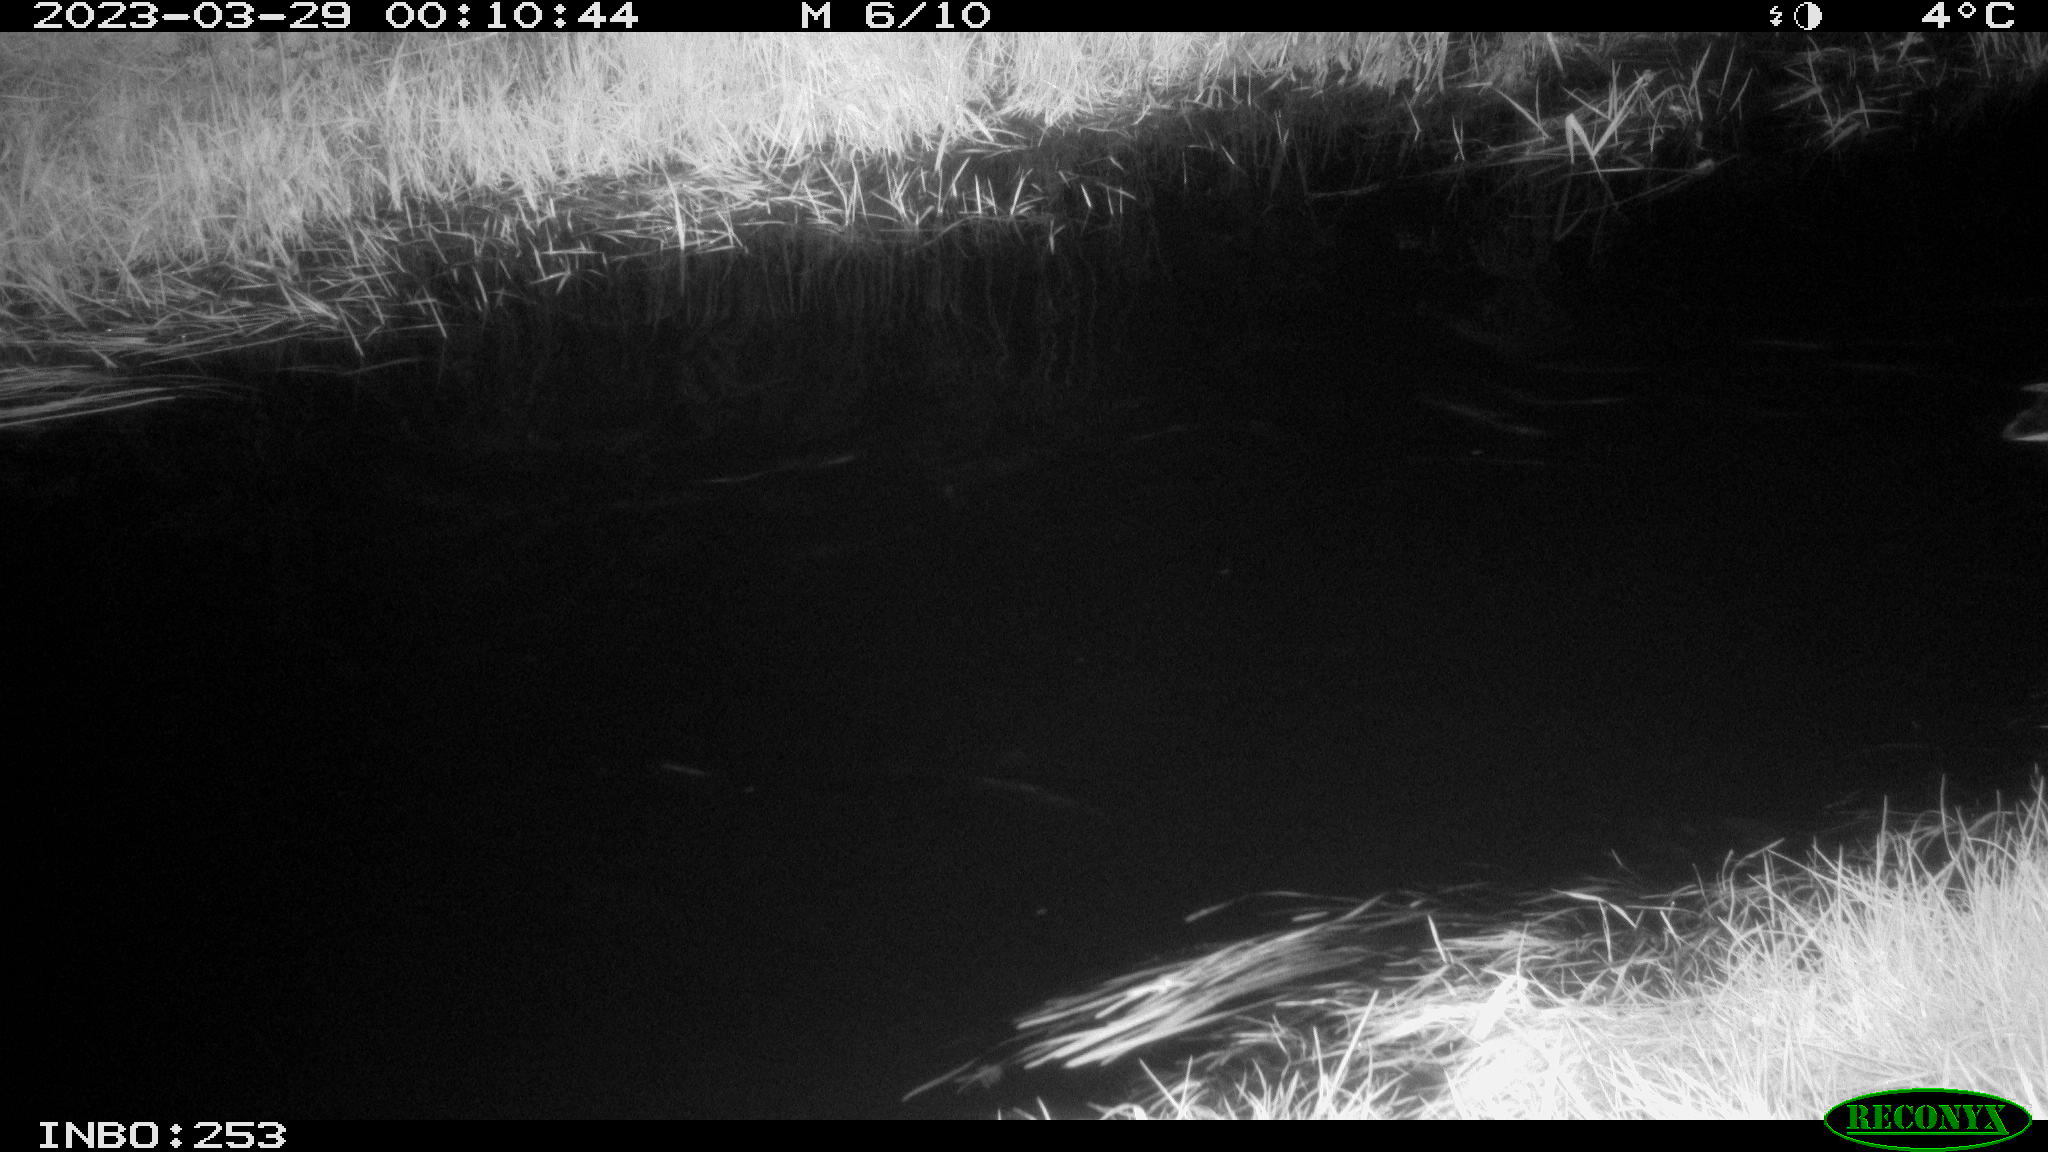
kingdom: Animalia
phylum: Chordata
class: Aves
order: Anseriformes
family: Anatidae
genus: Anas
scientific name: Anas
